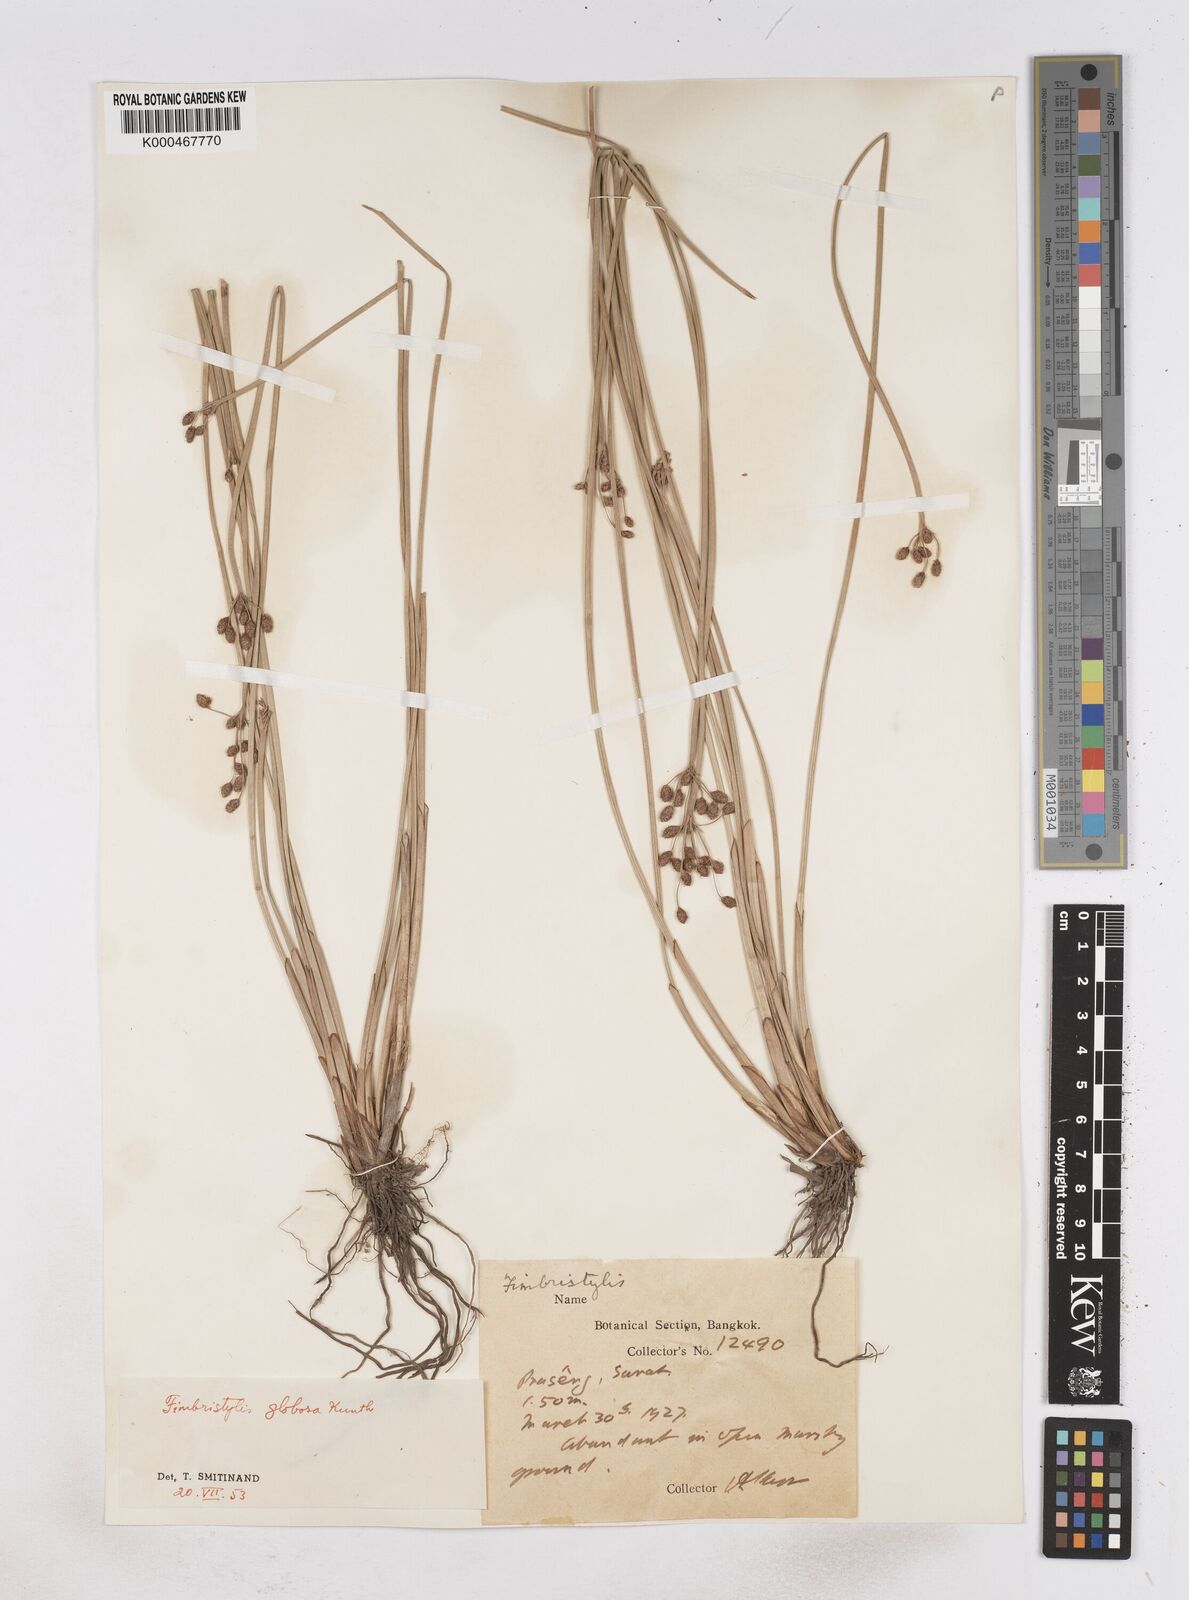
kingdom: Plantae
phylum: Tracheophyta
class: Liliopsida
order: Poales
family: Cyperaceae
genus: Fimbristylis
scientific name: Fimbristylis umbellaris
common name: Globular fimbristylis
